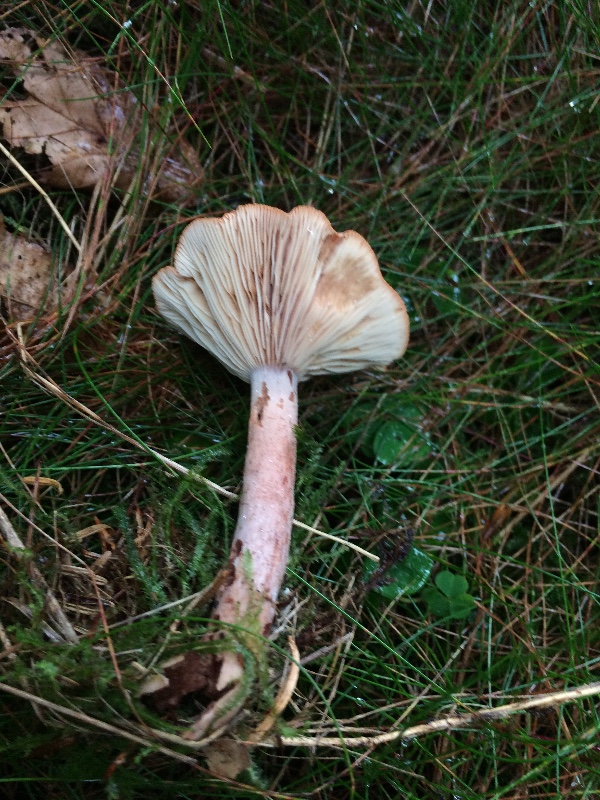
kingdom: Fungi
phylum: Basidiomycota
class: Agaricomycetes
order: Russulales
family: Russulaceae
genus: Lactarius
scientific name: Lactarius rufus
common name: rødbrun mælkehat
